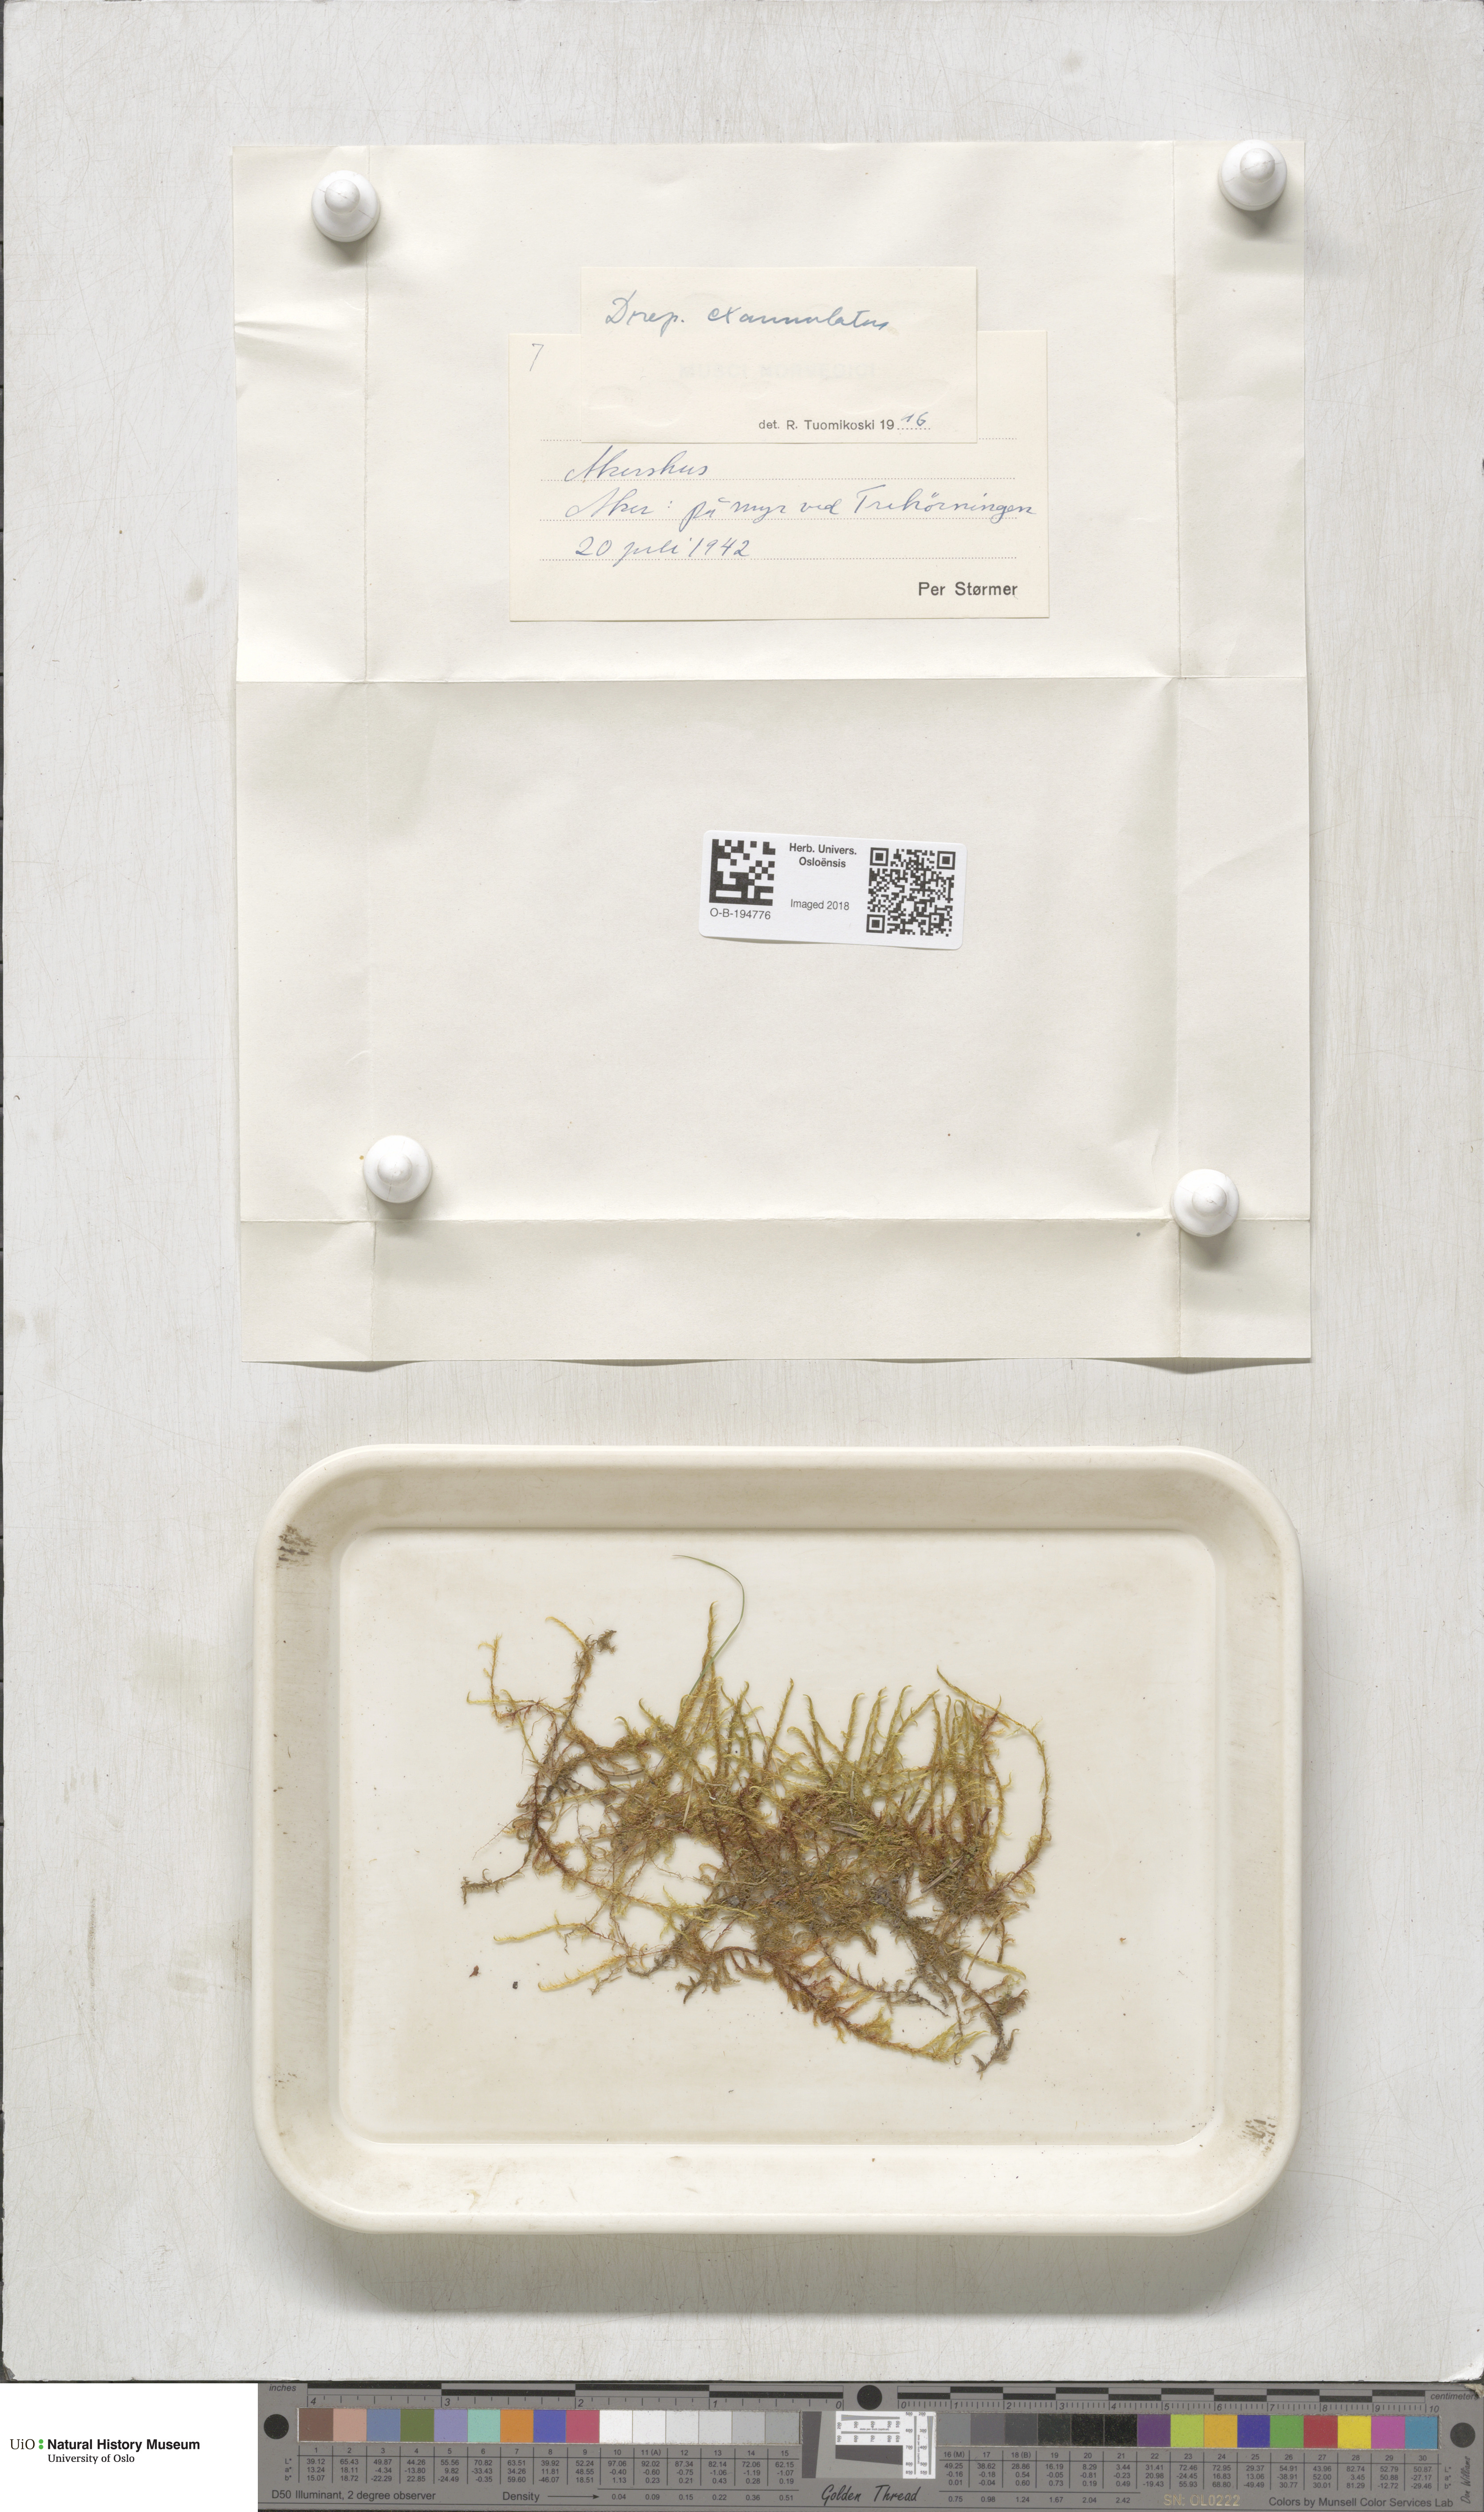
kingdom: Plantae
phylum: Bryophyta
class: Bryopsida
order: Hypnales
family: Calliergonaceae
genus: Sarmentypnum
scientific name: Sarmentypnum exannulatum
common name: Ringless spoon moss
